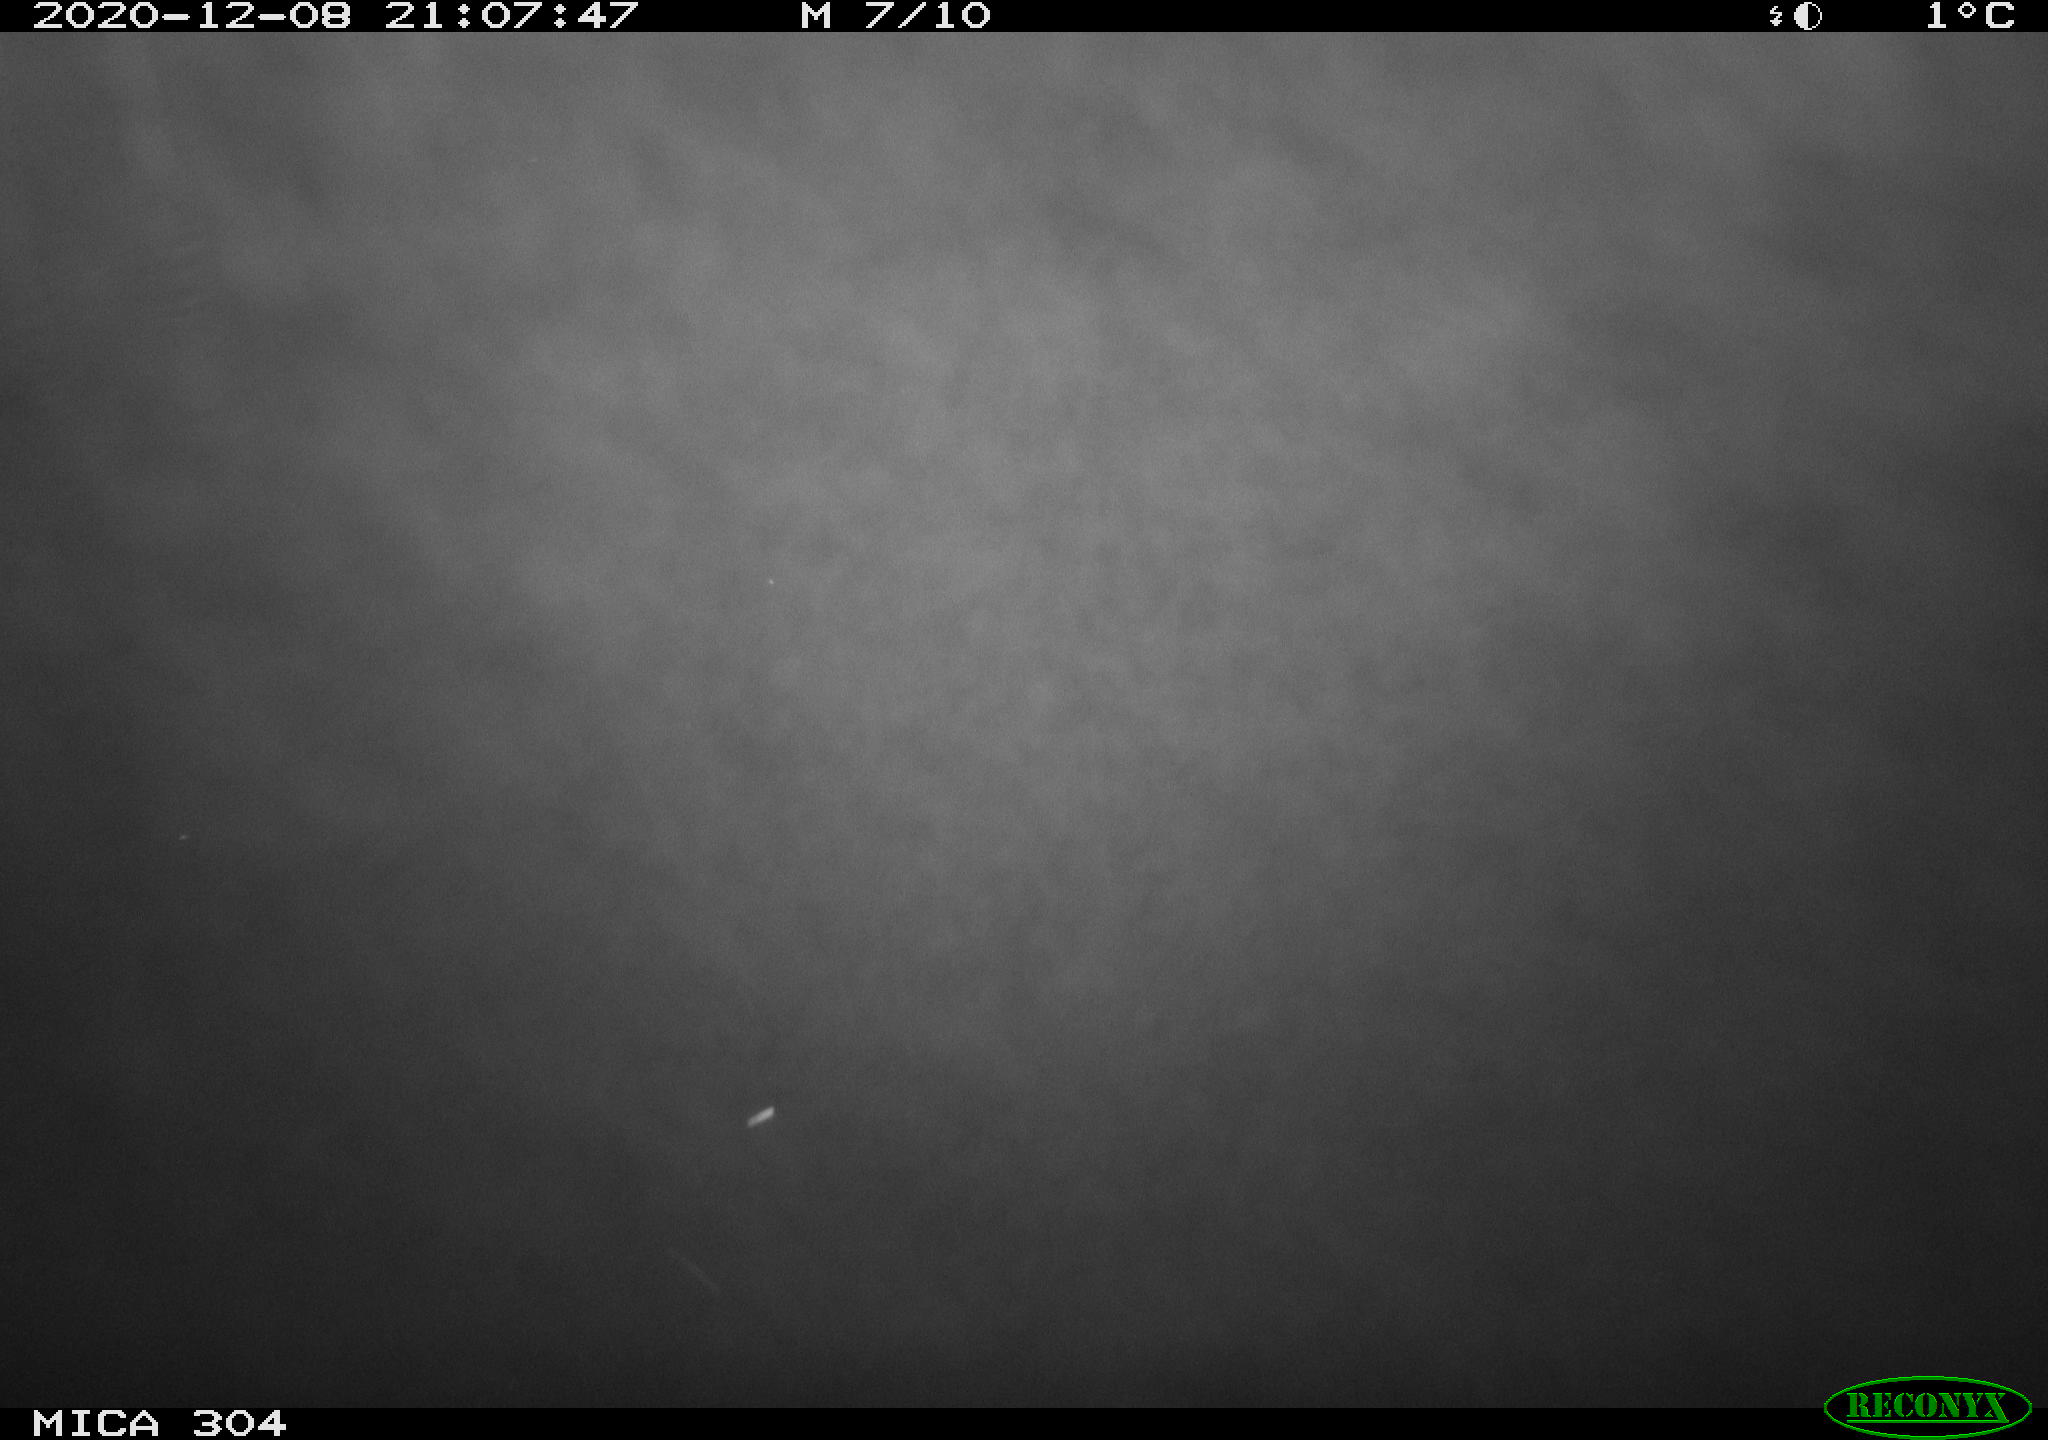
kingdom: Animalia
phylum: Chordata
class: Mammalia
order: Rodentia
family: Muridae
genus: Rattus
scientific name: Rattus norvegicus
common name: Brown rat
